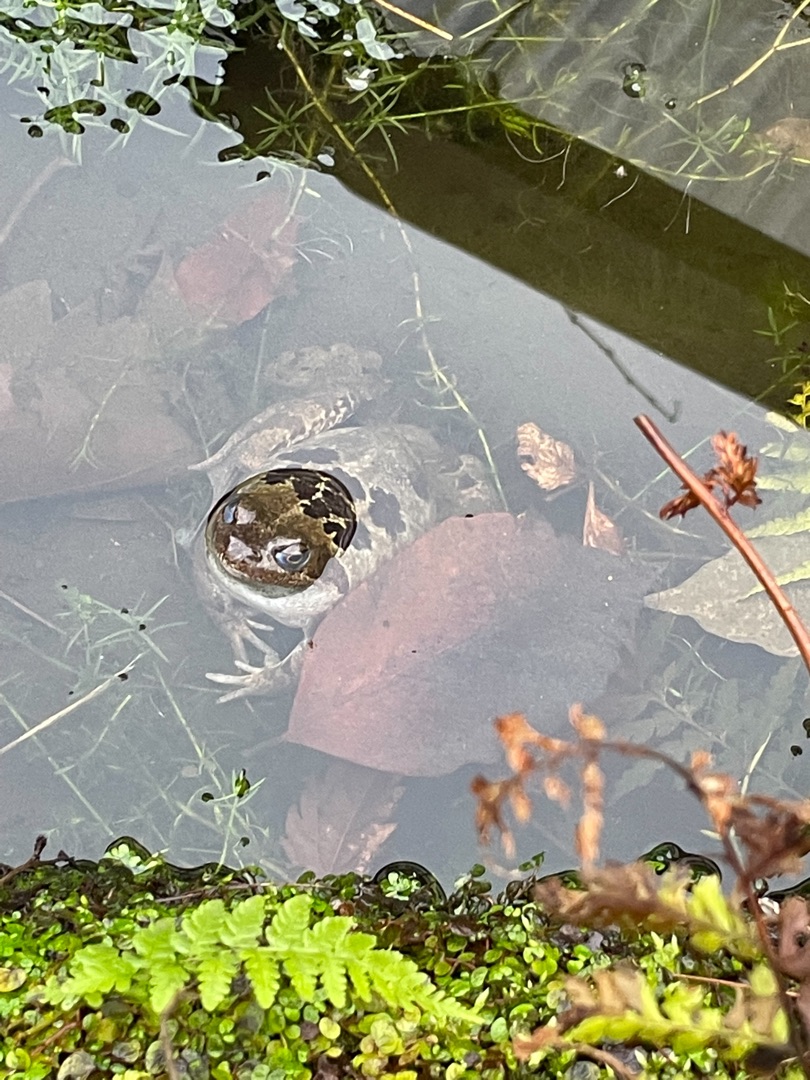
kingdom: Animalia
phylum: Chordata
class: Amphibia
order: Anura
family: Ranidae
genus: Rana
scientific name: Rana temporaria
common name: Butsnudet frø
